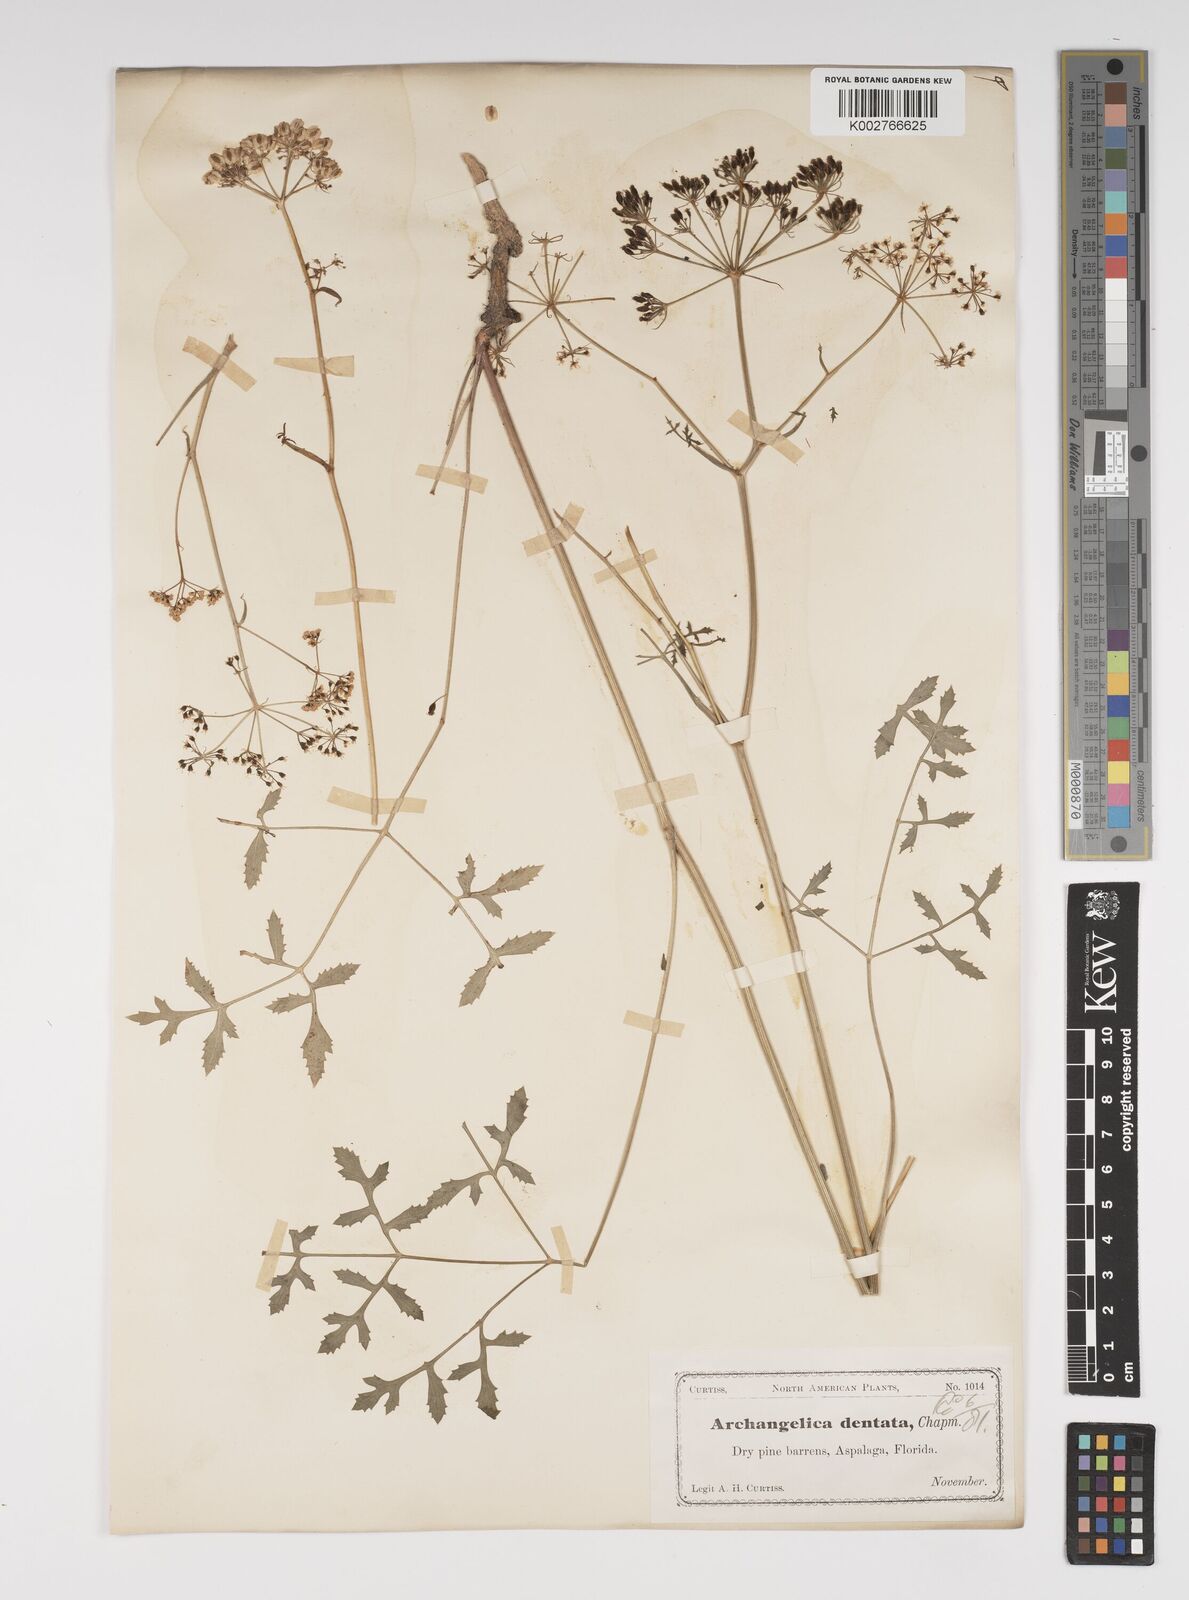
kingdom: Plantae
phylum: Tracheophyta
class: Magnoliopsida
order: Apiales
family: Apiaceae
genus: Angelica
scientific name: Angelica venenosa
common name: Hairy angelica
